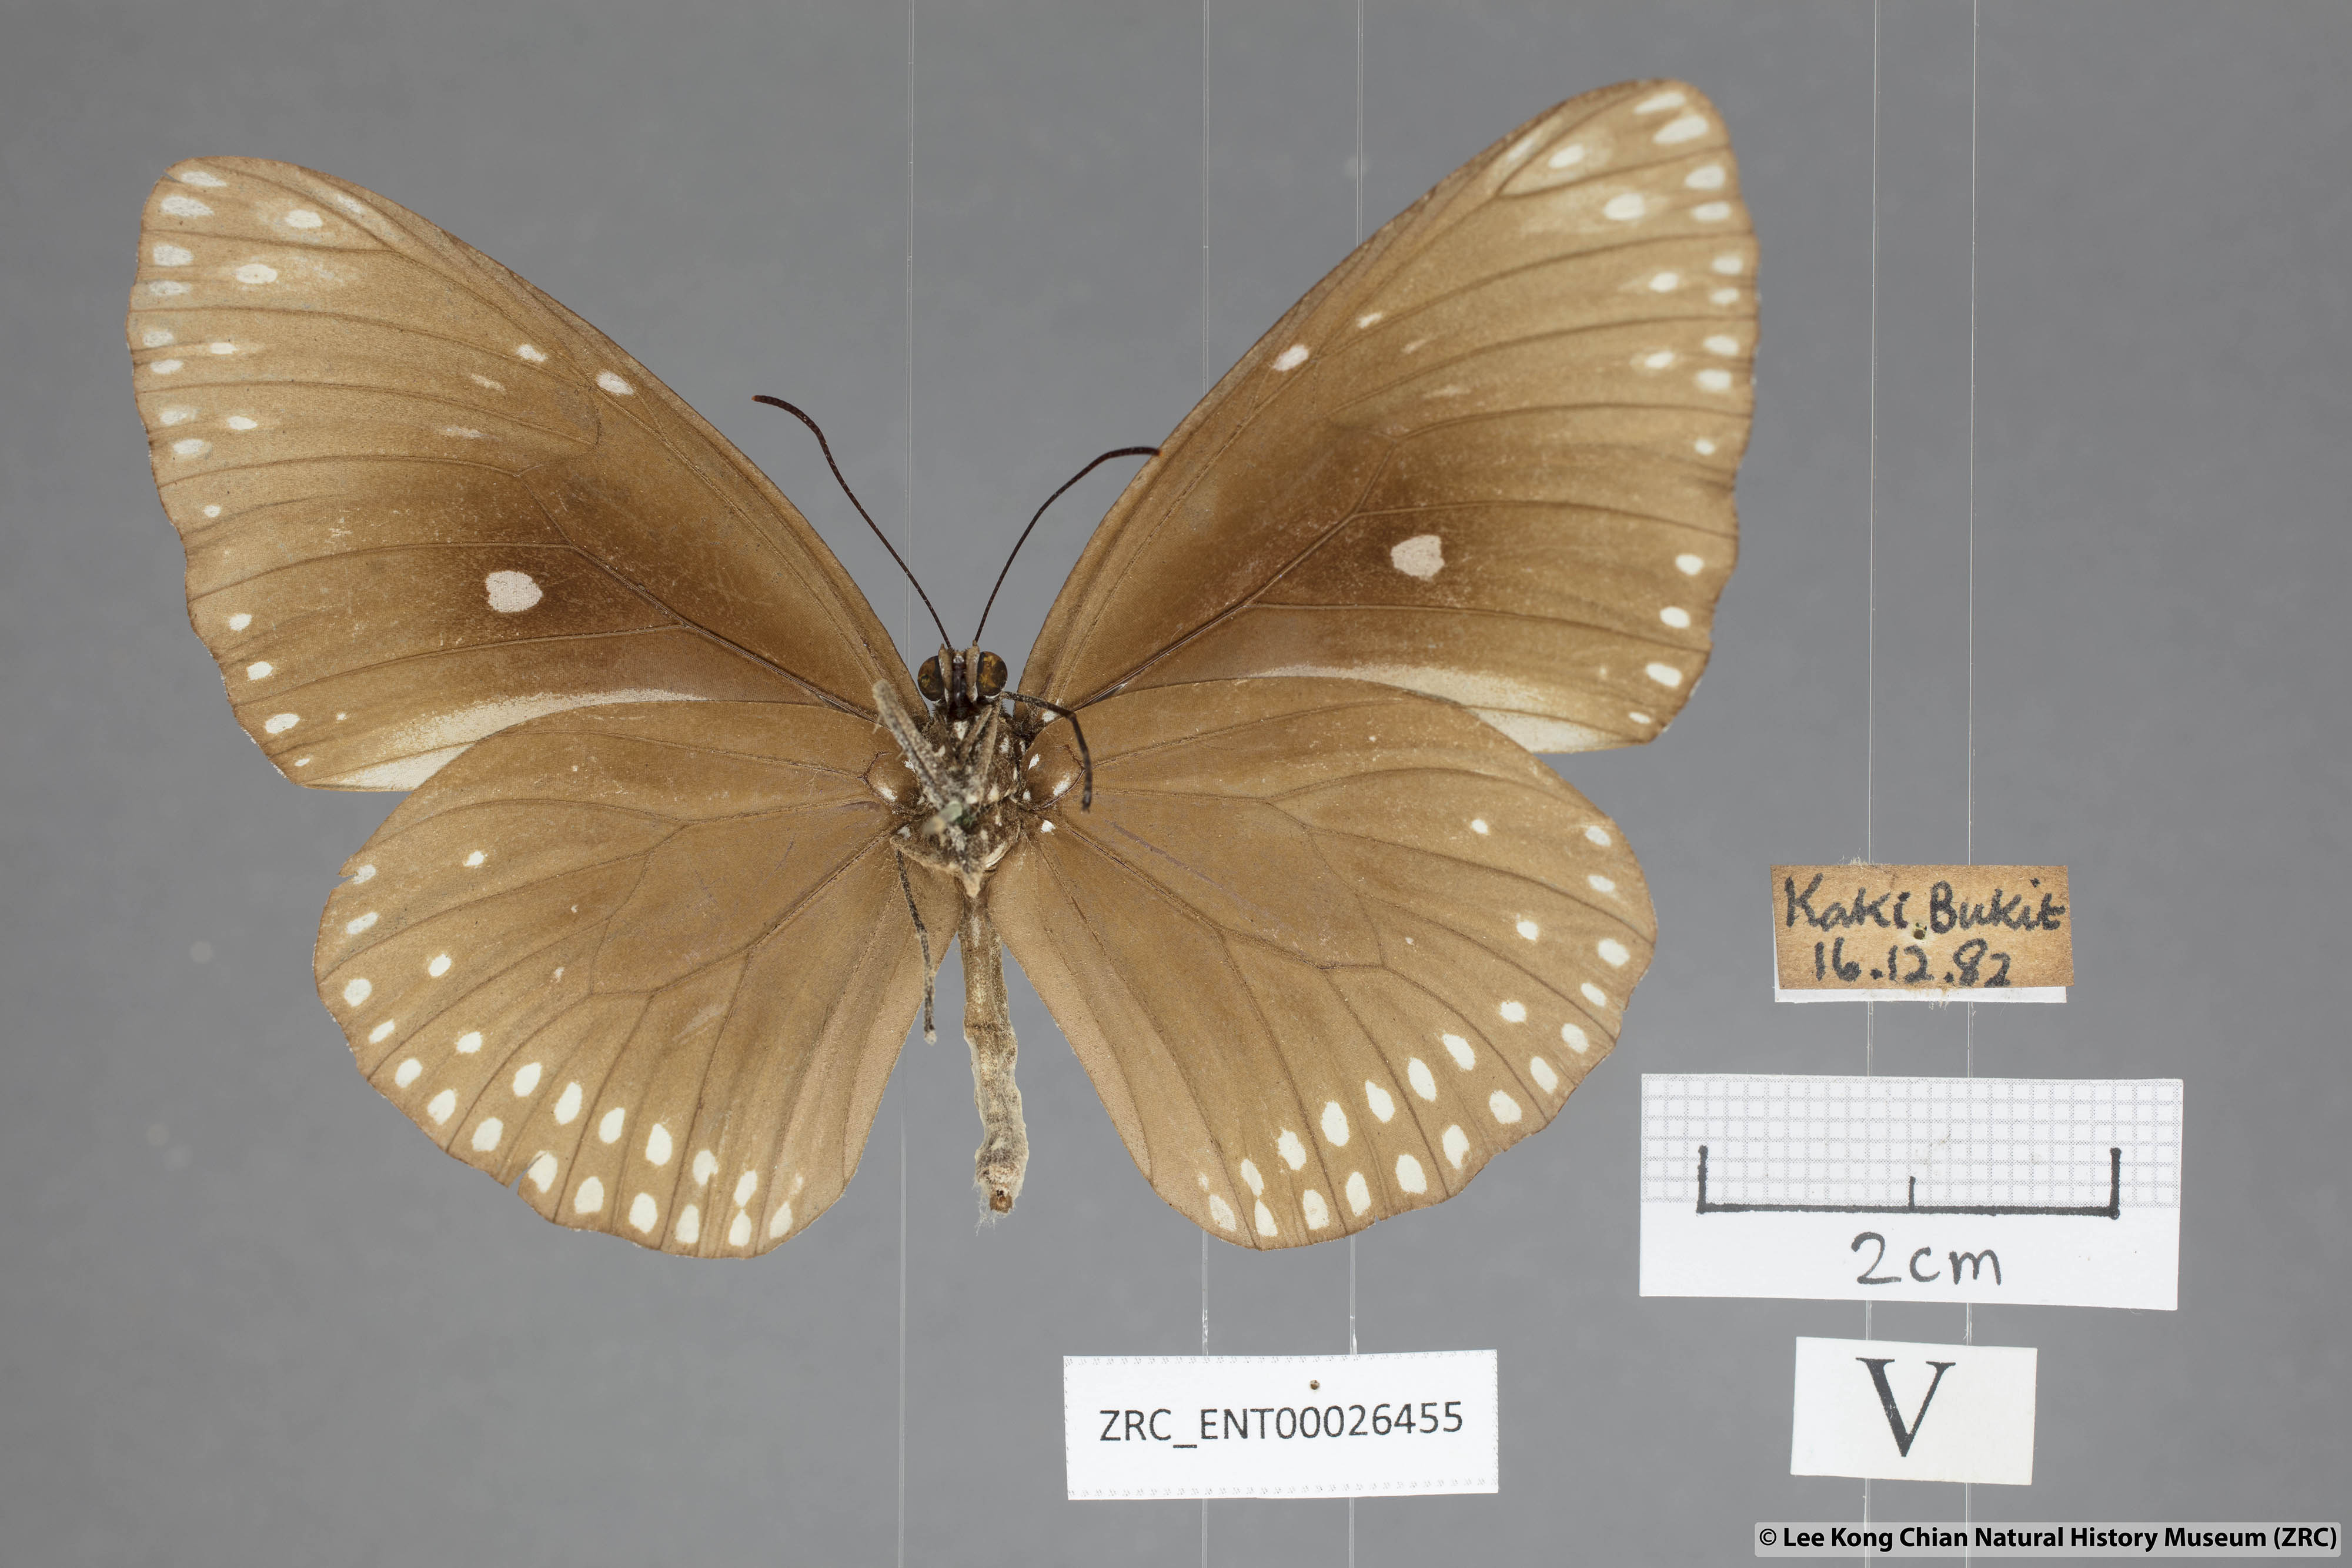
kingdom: Animalia
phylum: Arthropoda
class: Insecta
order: Lepidoptera
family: Nymphalidae
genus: Euploea
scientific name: Euploea klugii
